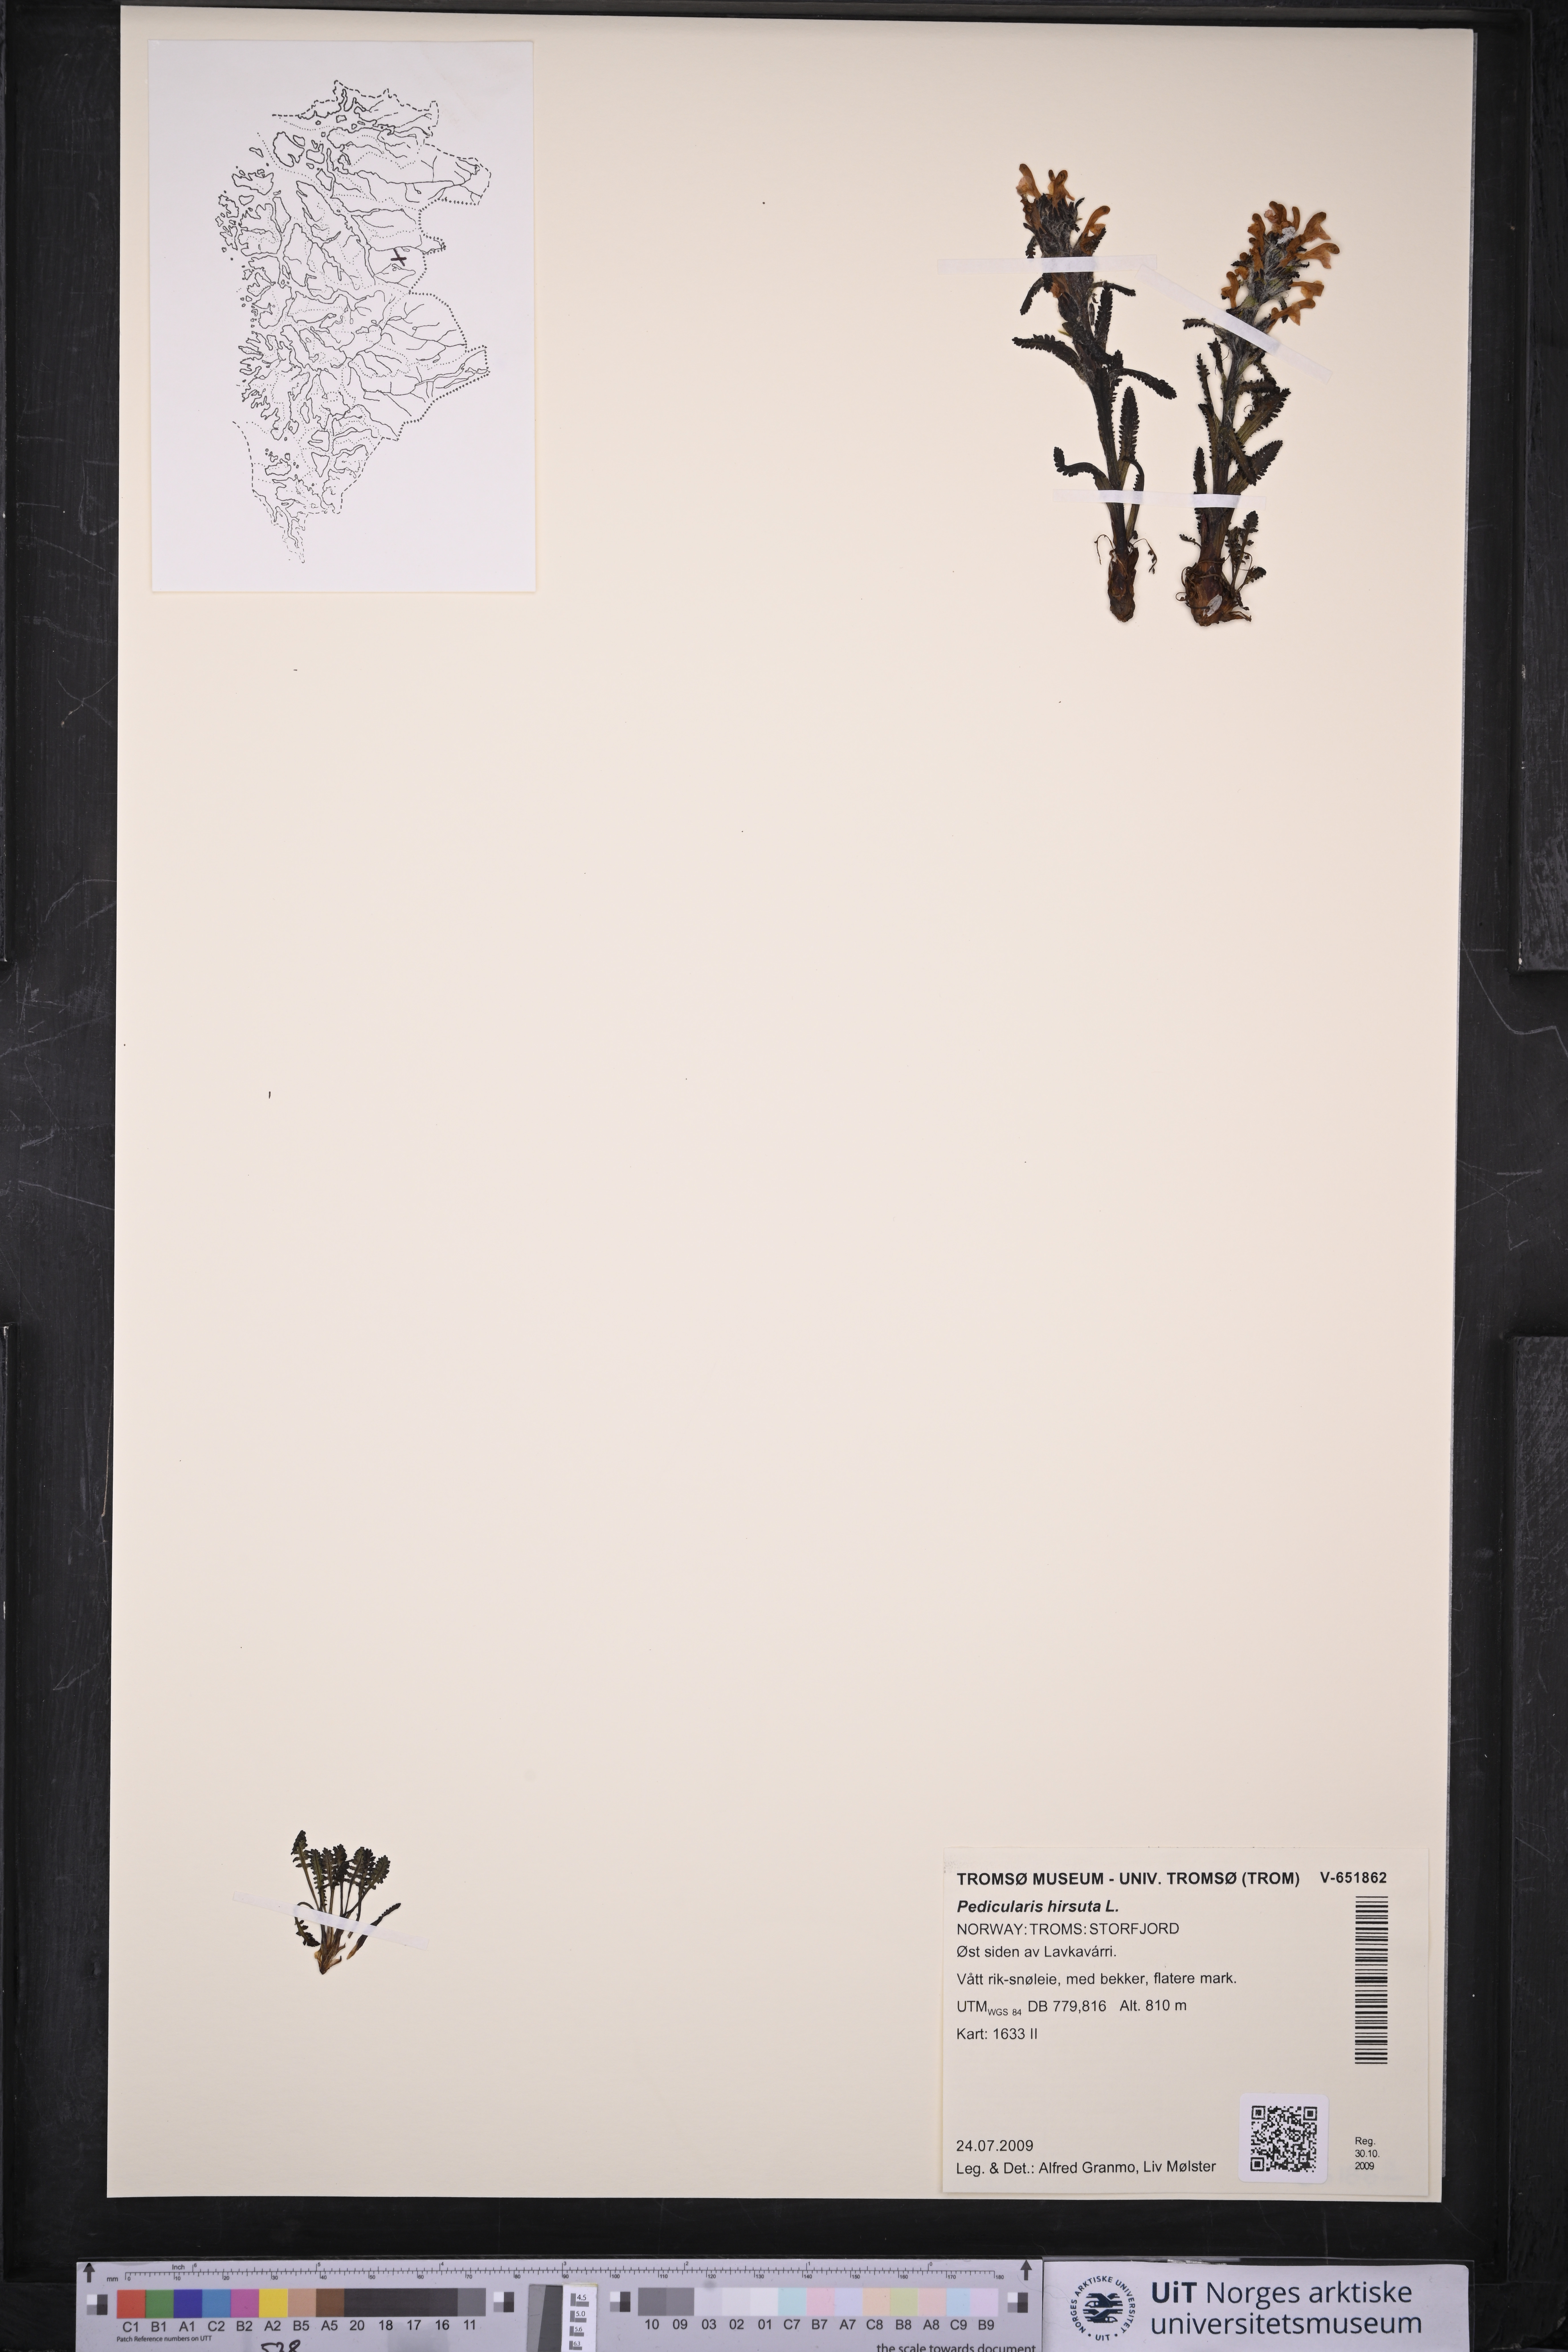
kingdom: Plantae
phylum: Tracheophyta
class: Magnoliopsida
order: Lamiales
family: Orobanchaceae
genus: Pedicularis
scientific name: Pedicularis hirsuta
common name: Hairy lousewort
